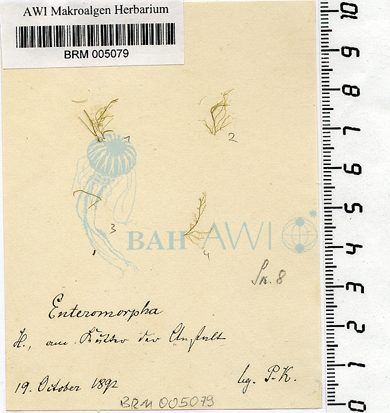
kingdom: Plantae
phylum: Chlorophyta
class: Ulvophyceae
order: Ulvales
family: Ulvaceae
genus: Ulva
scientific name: Ulva clathrata
